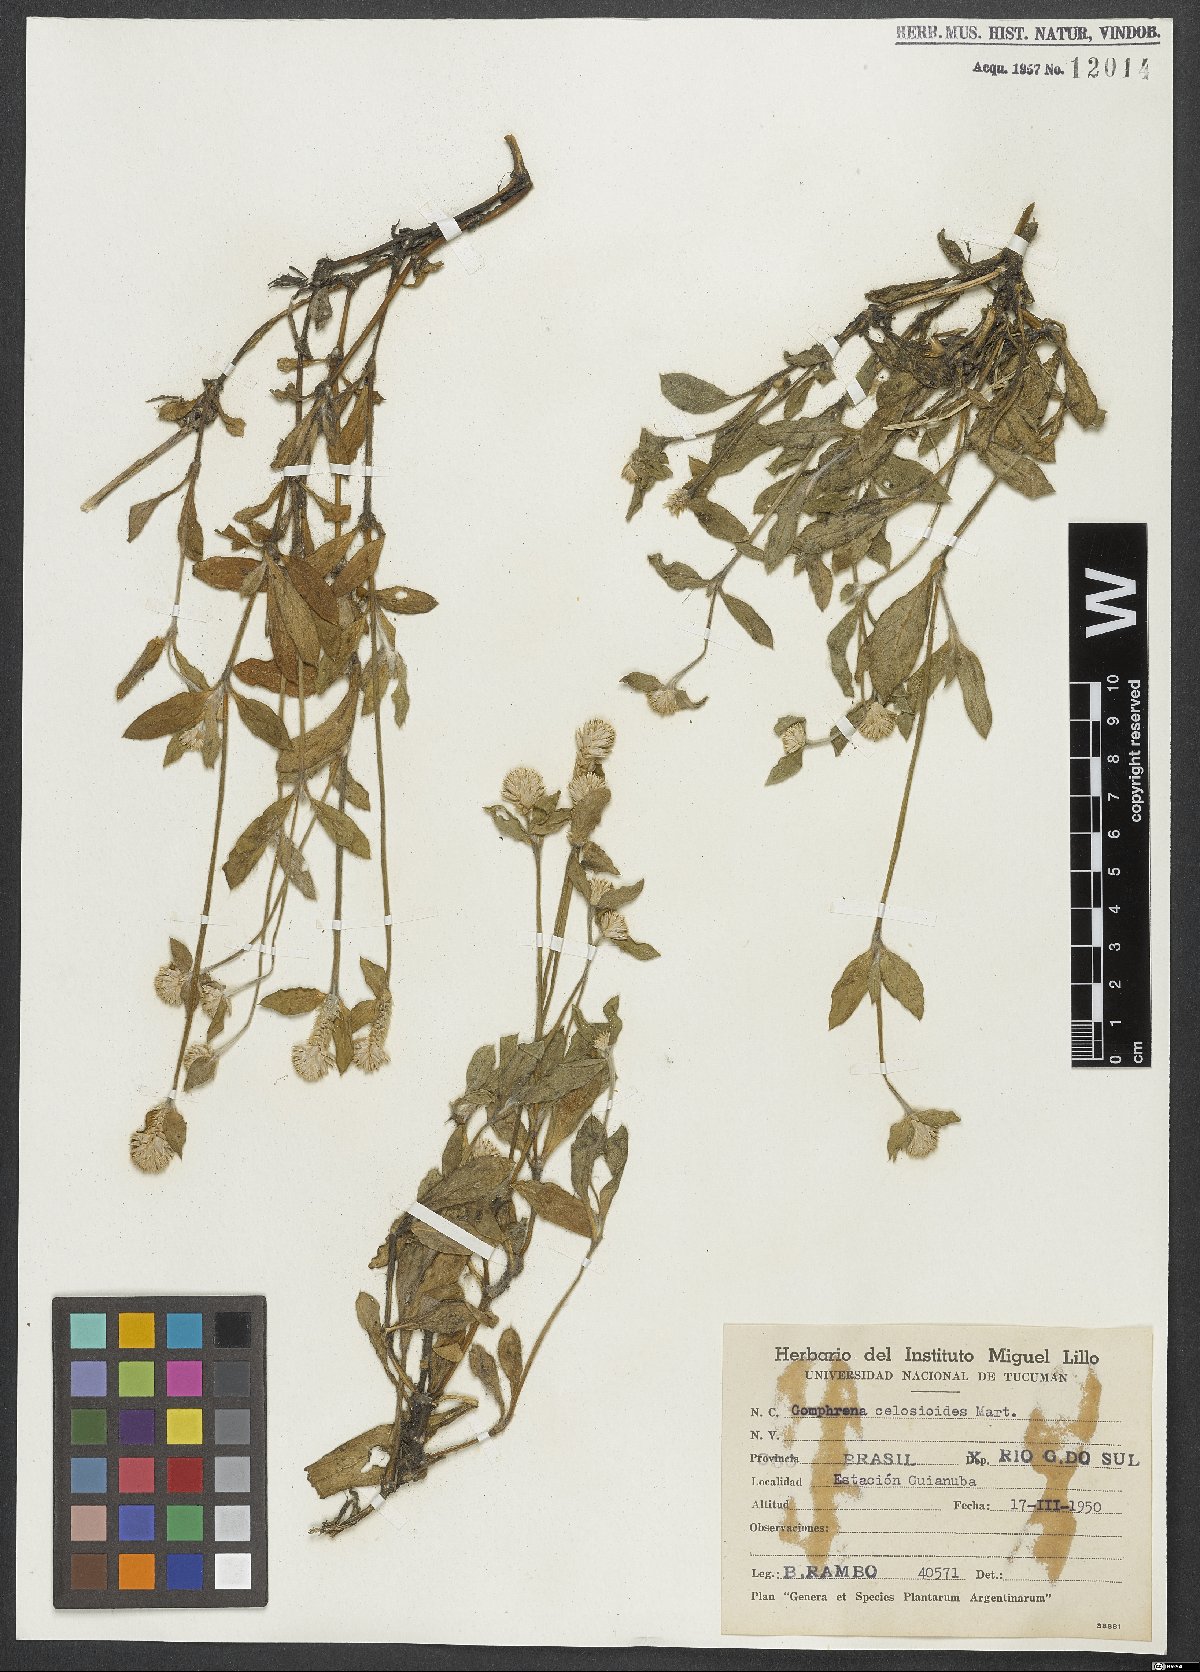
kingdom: Plantae
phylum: Tracheophyta
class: Magnoliopsida
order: Caryophyllales
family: Amaranthaceae
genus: Gomphrena
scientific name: Gomphrena celosioides
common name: Gomphrena-weed
